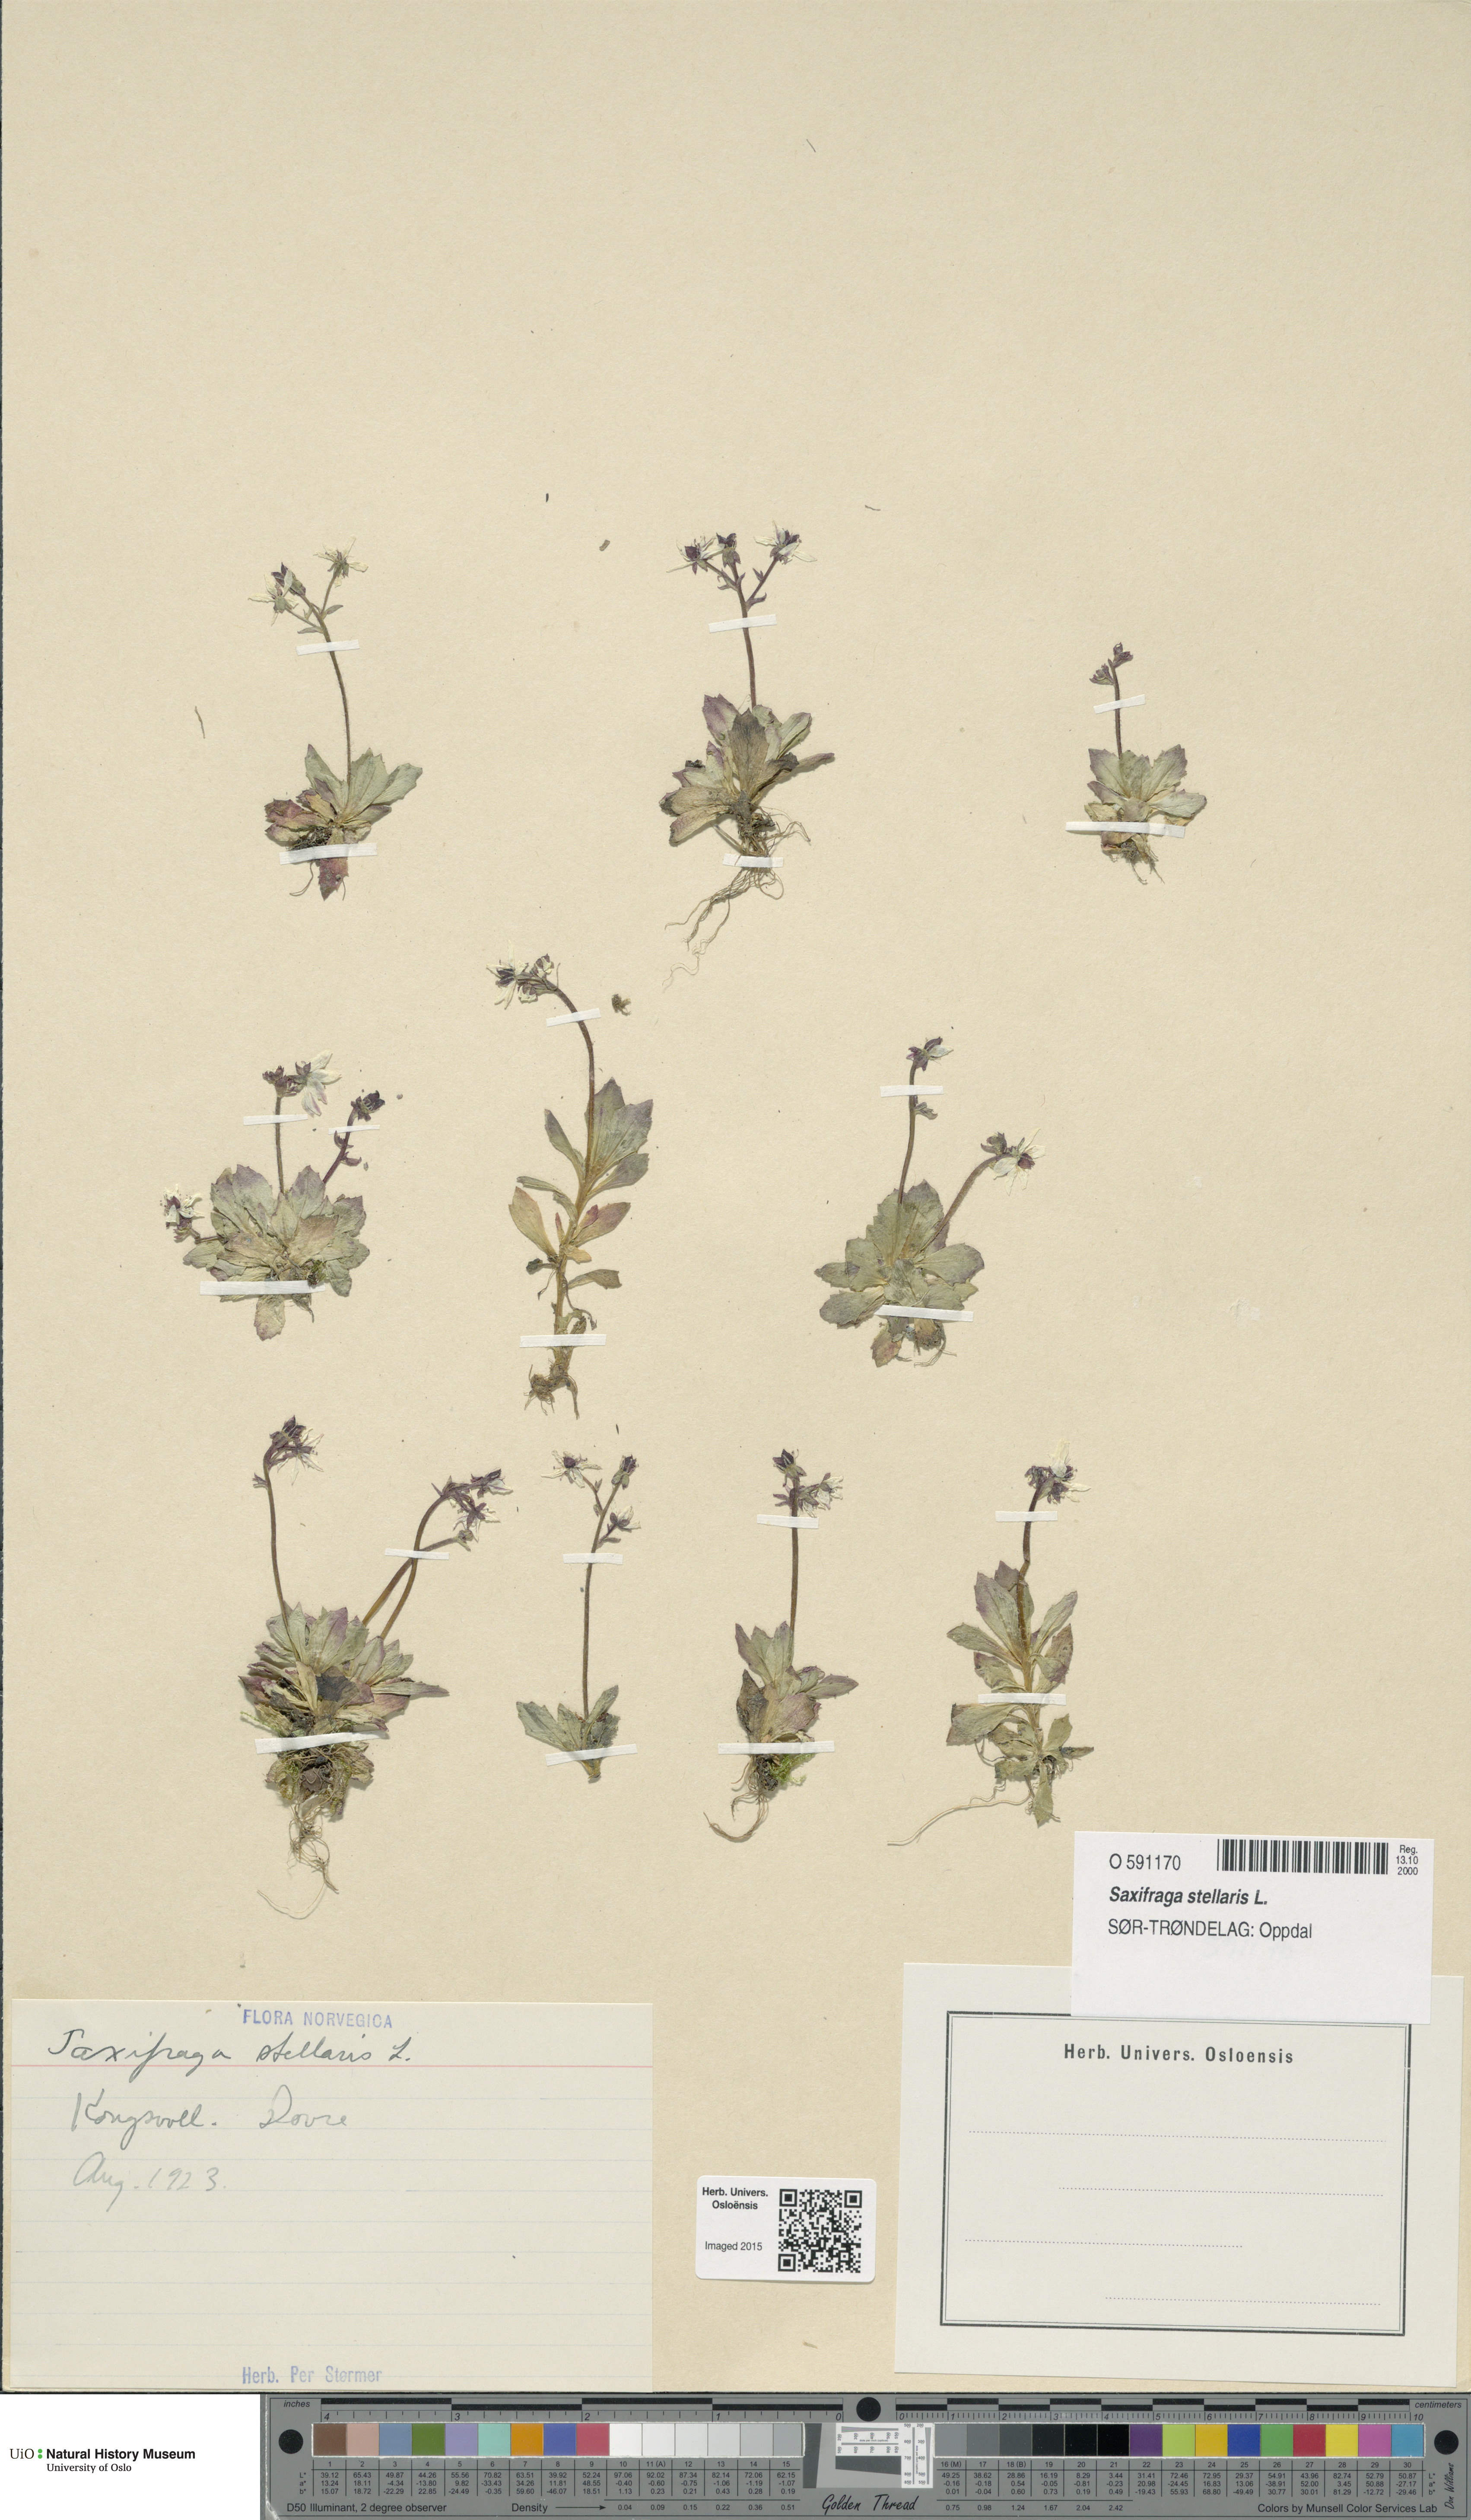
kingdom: Plantae
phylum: Tracheophyta
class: Magnoliopsida
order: Saxifragales
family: Saxifragaceae
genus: Micranthes
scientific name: Micranthes stellaris
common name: Starry saxifrage
